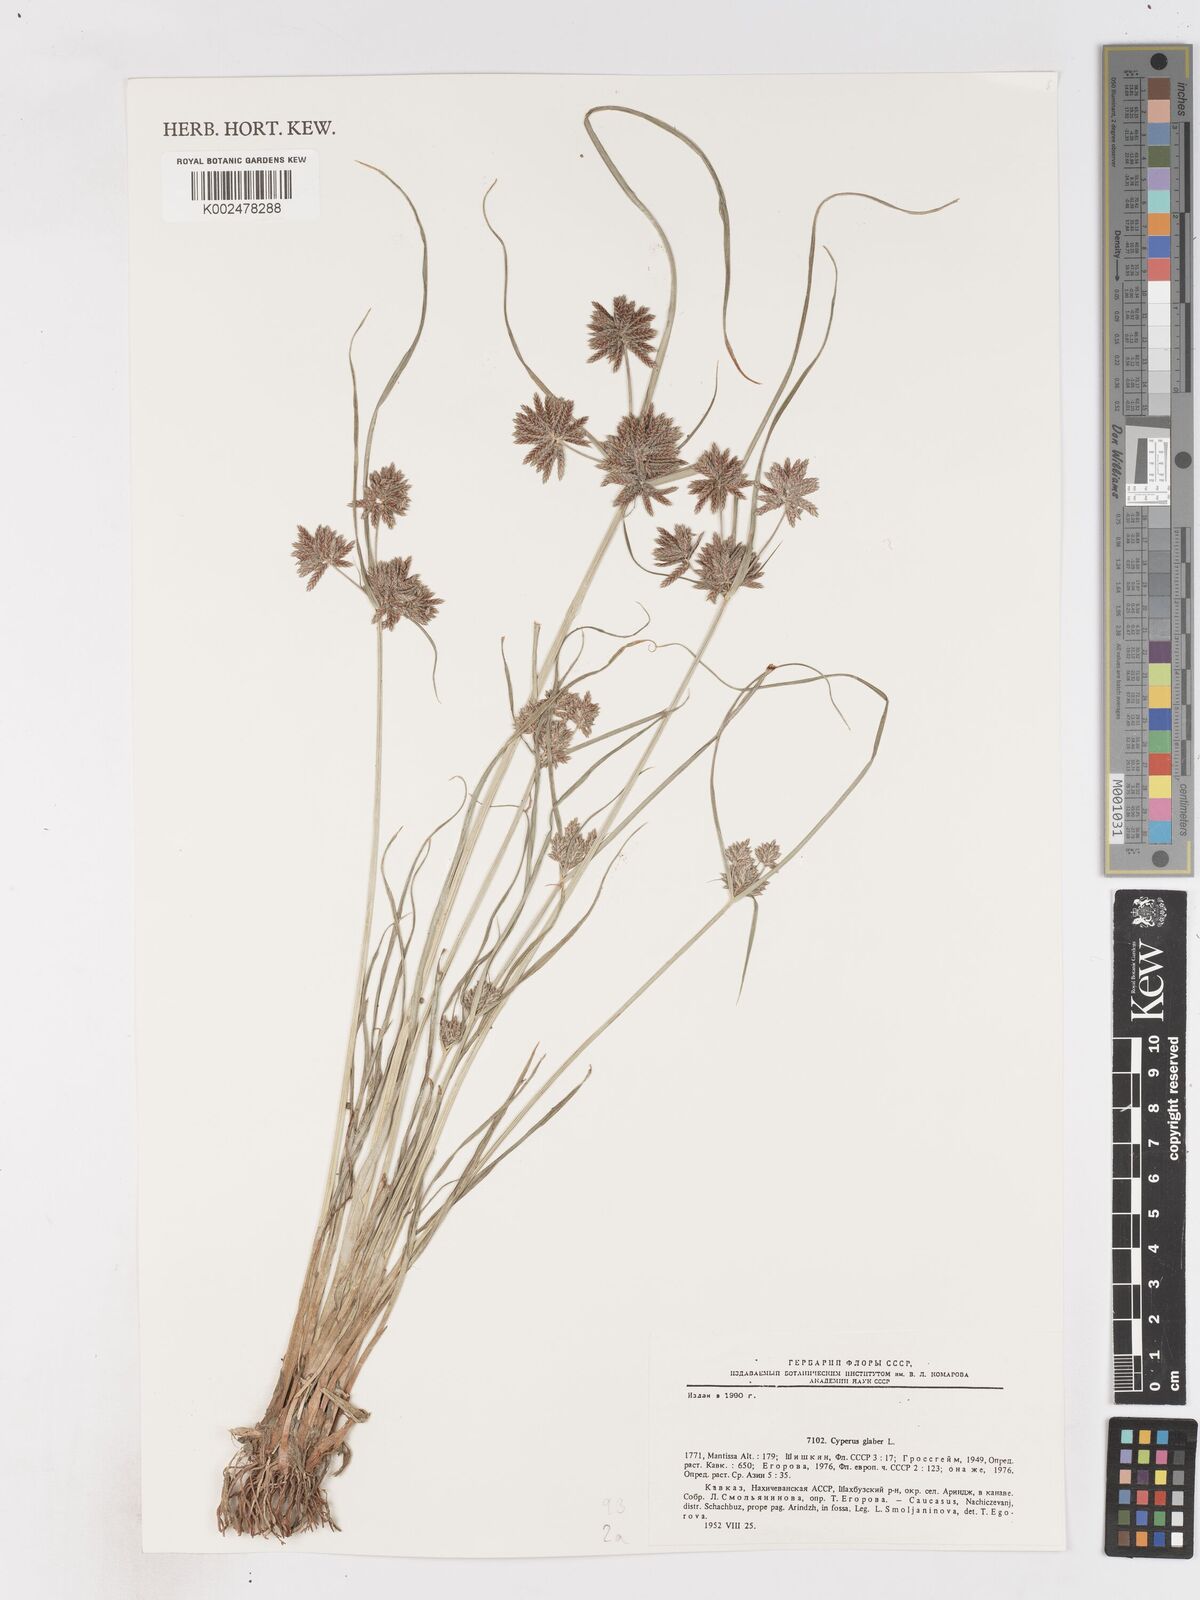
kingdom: Plantae
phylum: Tracheophyta
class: Liliopsida
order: Poales
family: Cyperaceae
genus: Cyperus
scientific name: Cyperus glaber
